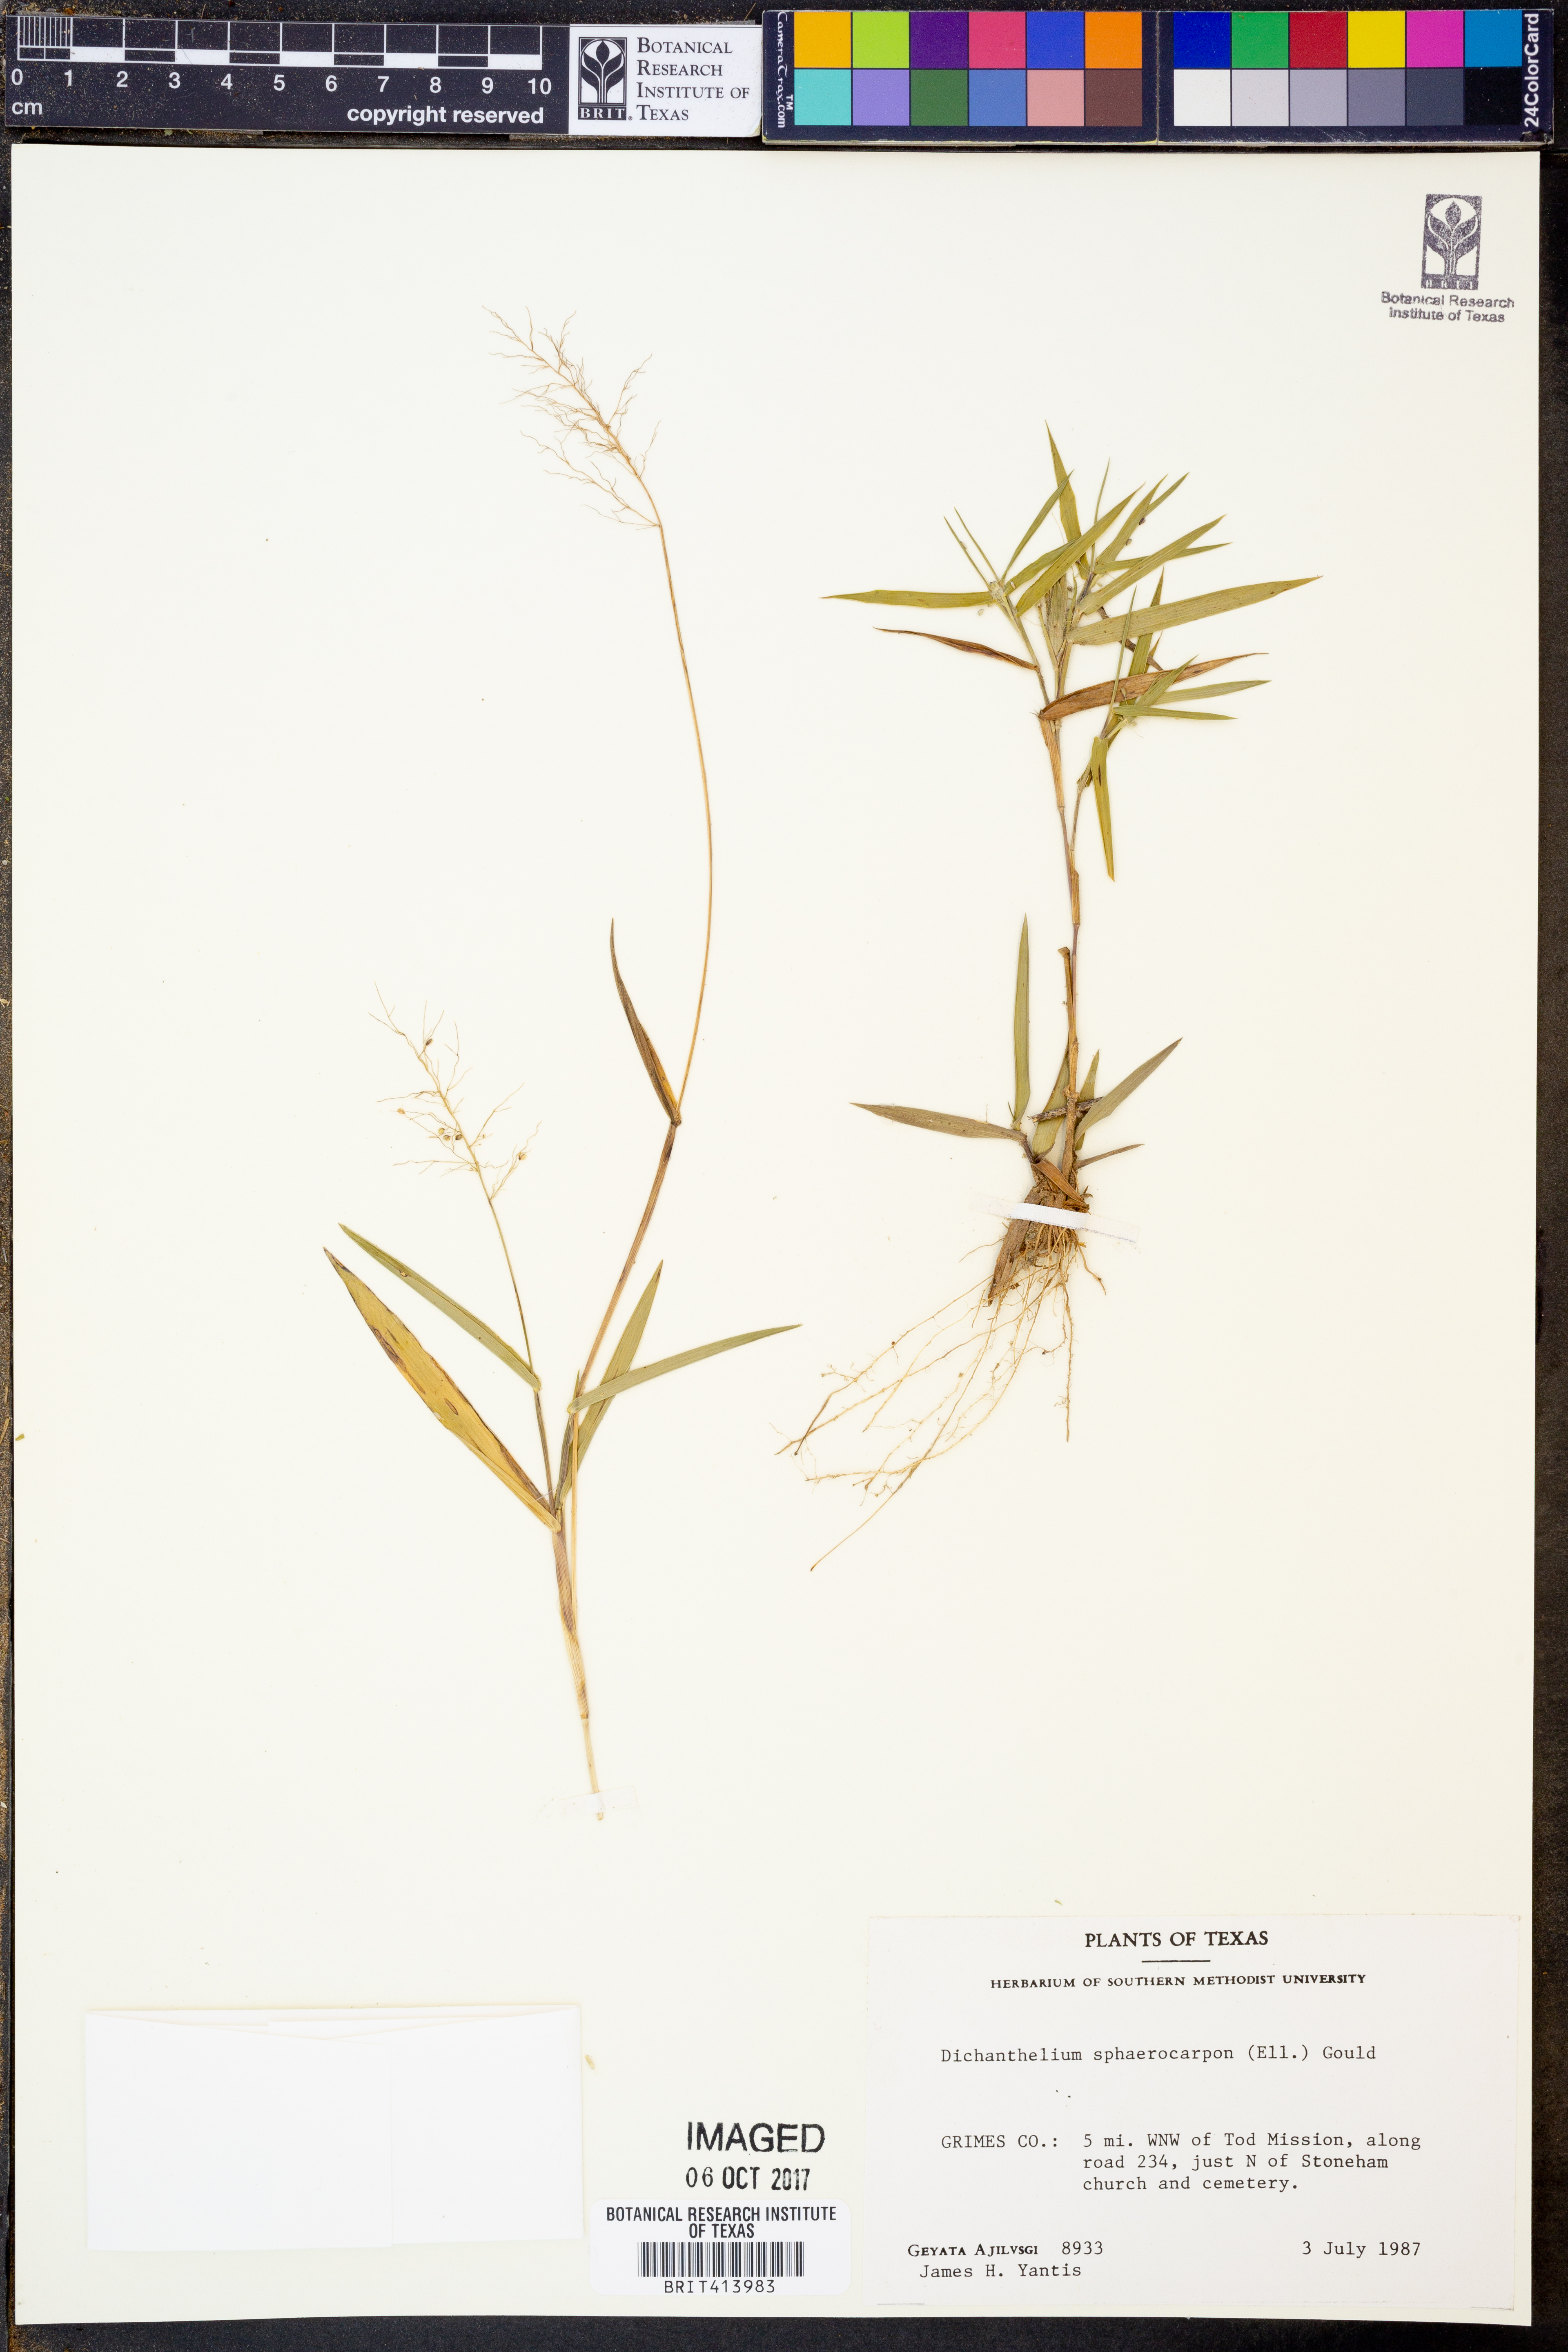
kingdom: Plantae
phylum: Tracheophyta
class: Liliopsida
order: Poales
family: Poaceae
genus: Dichanthelium
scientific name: Dichanthelium sphaerocarpon
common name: Round-fruited panicgrass
